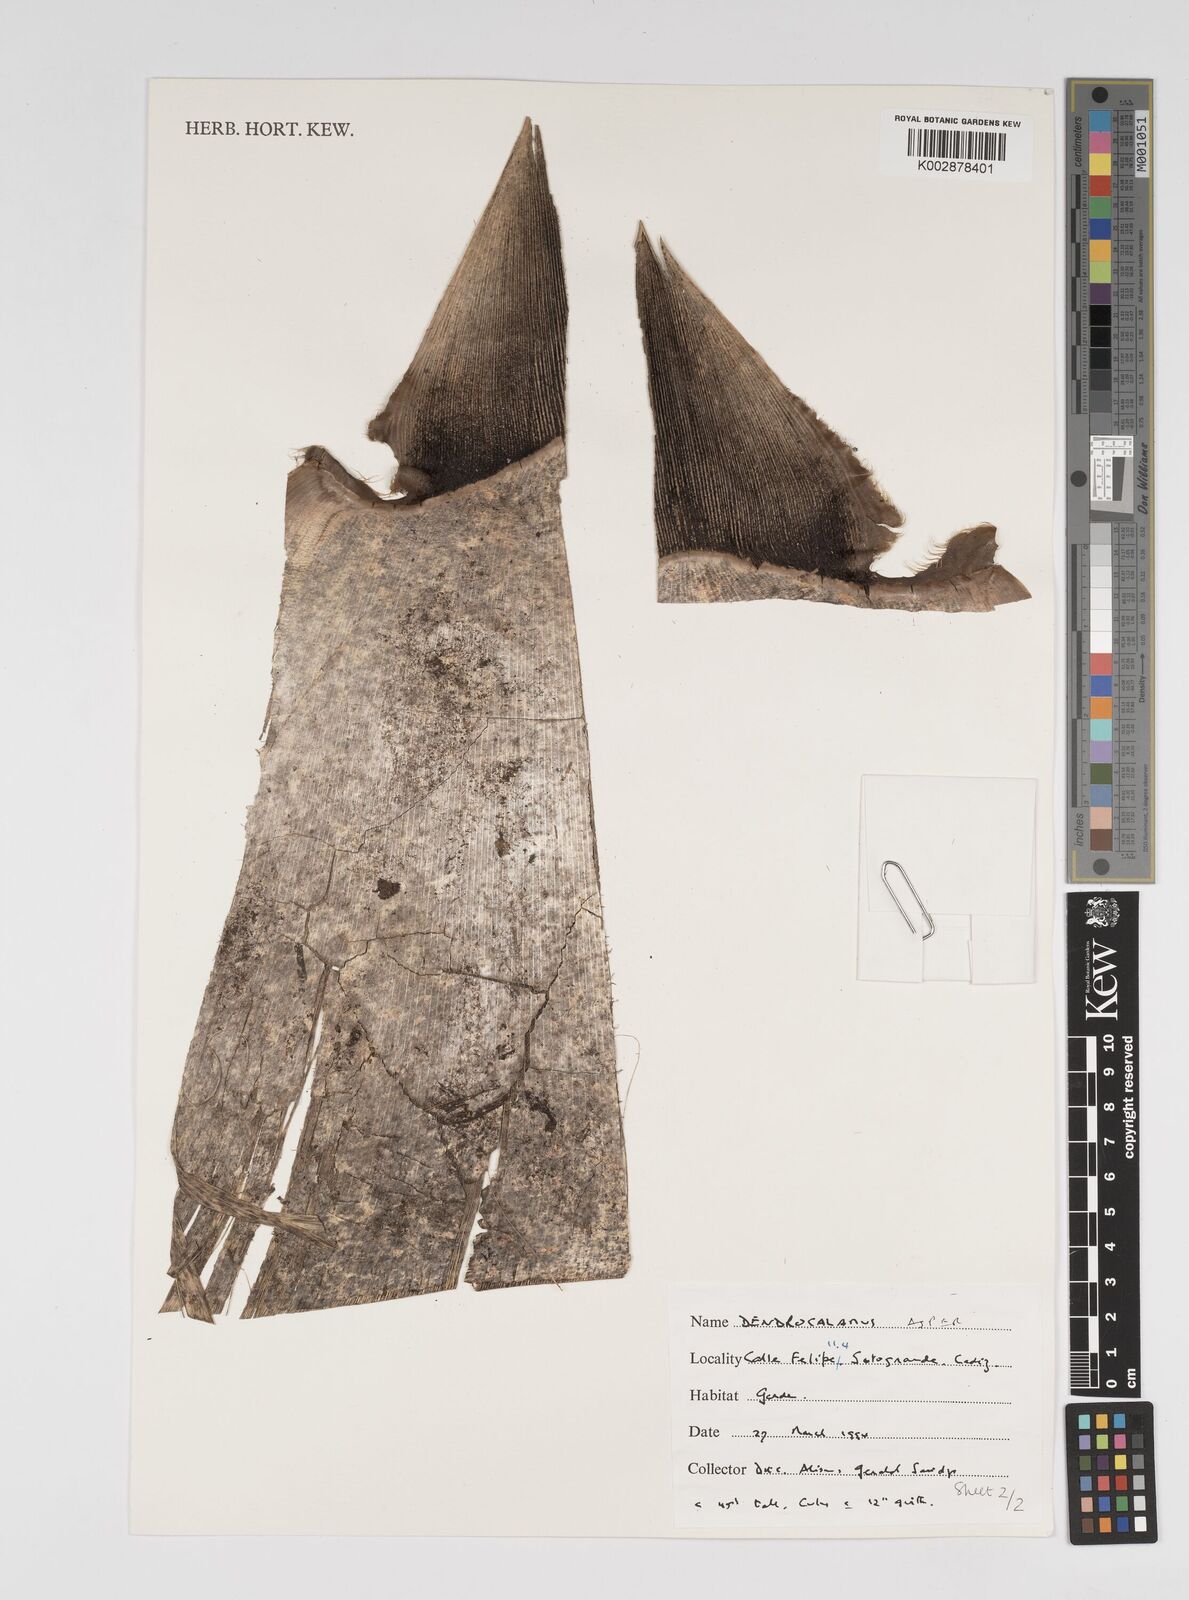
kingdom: Plantae
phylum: Tracheophyta
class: Liliopsida
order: Poales
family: Poaceae
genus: Dendrocalamus
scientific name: Dendrocalamus asper
